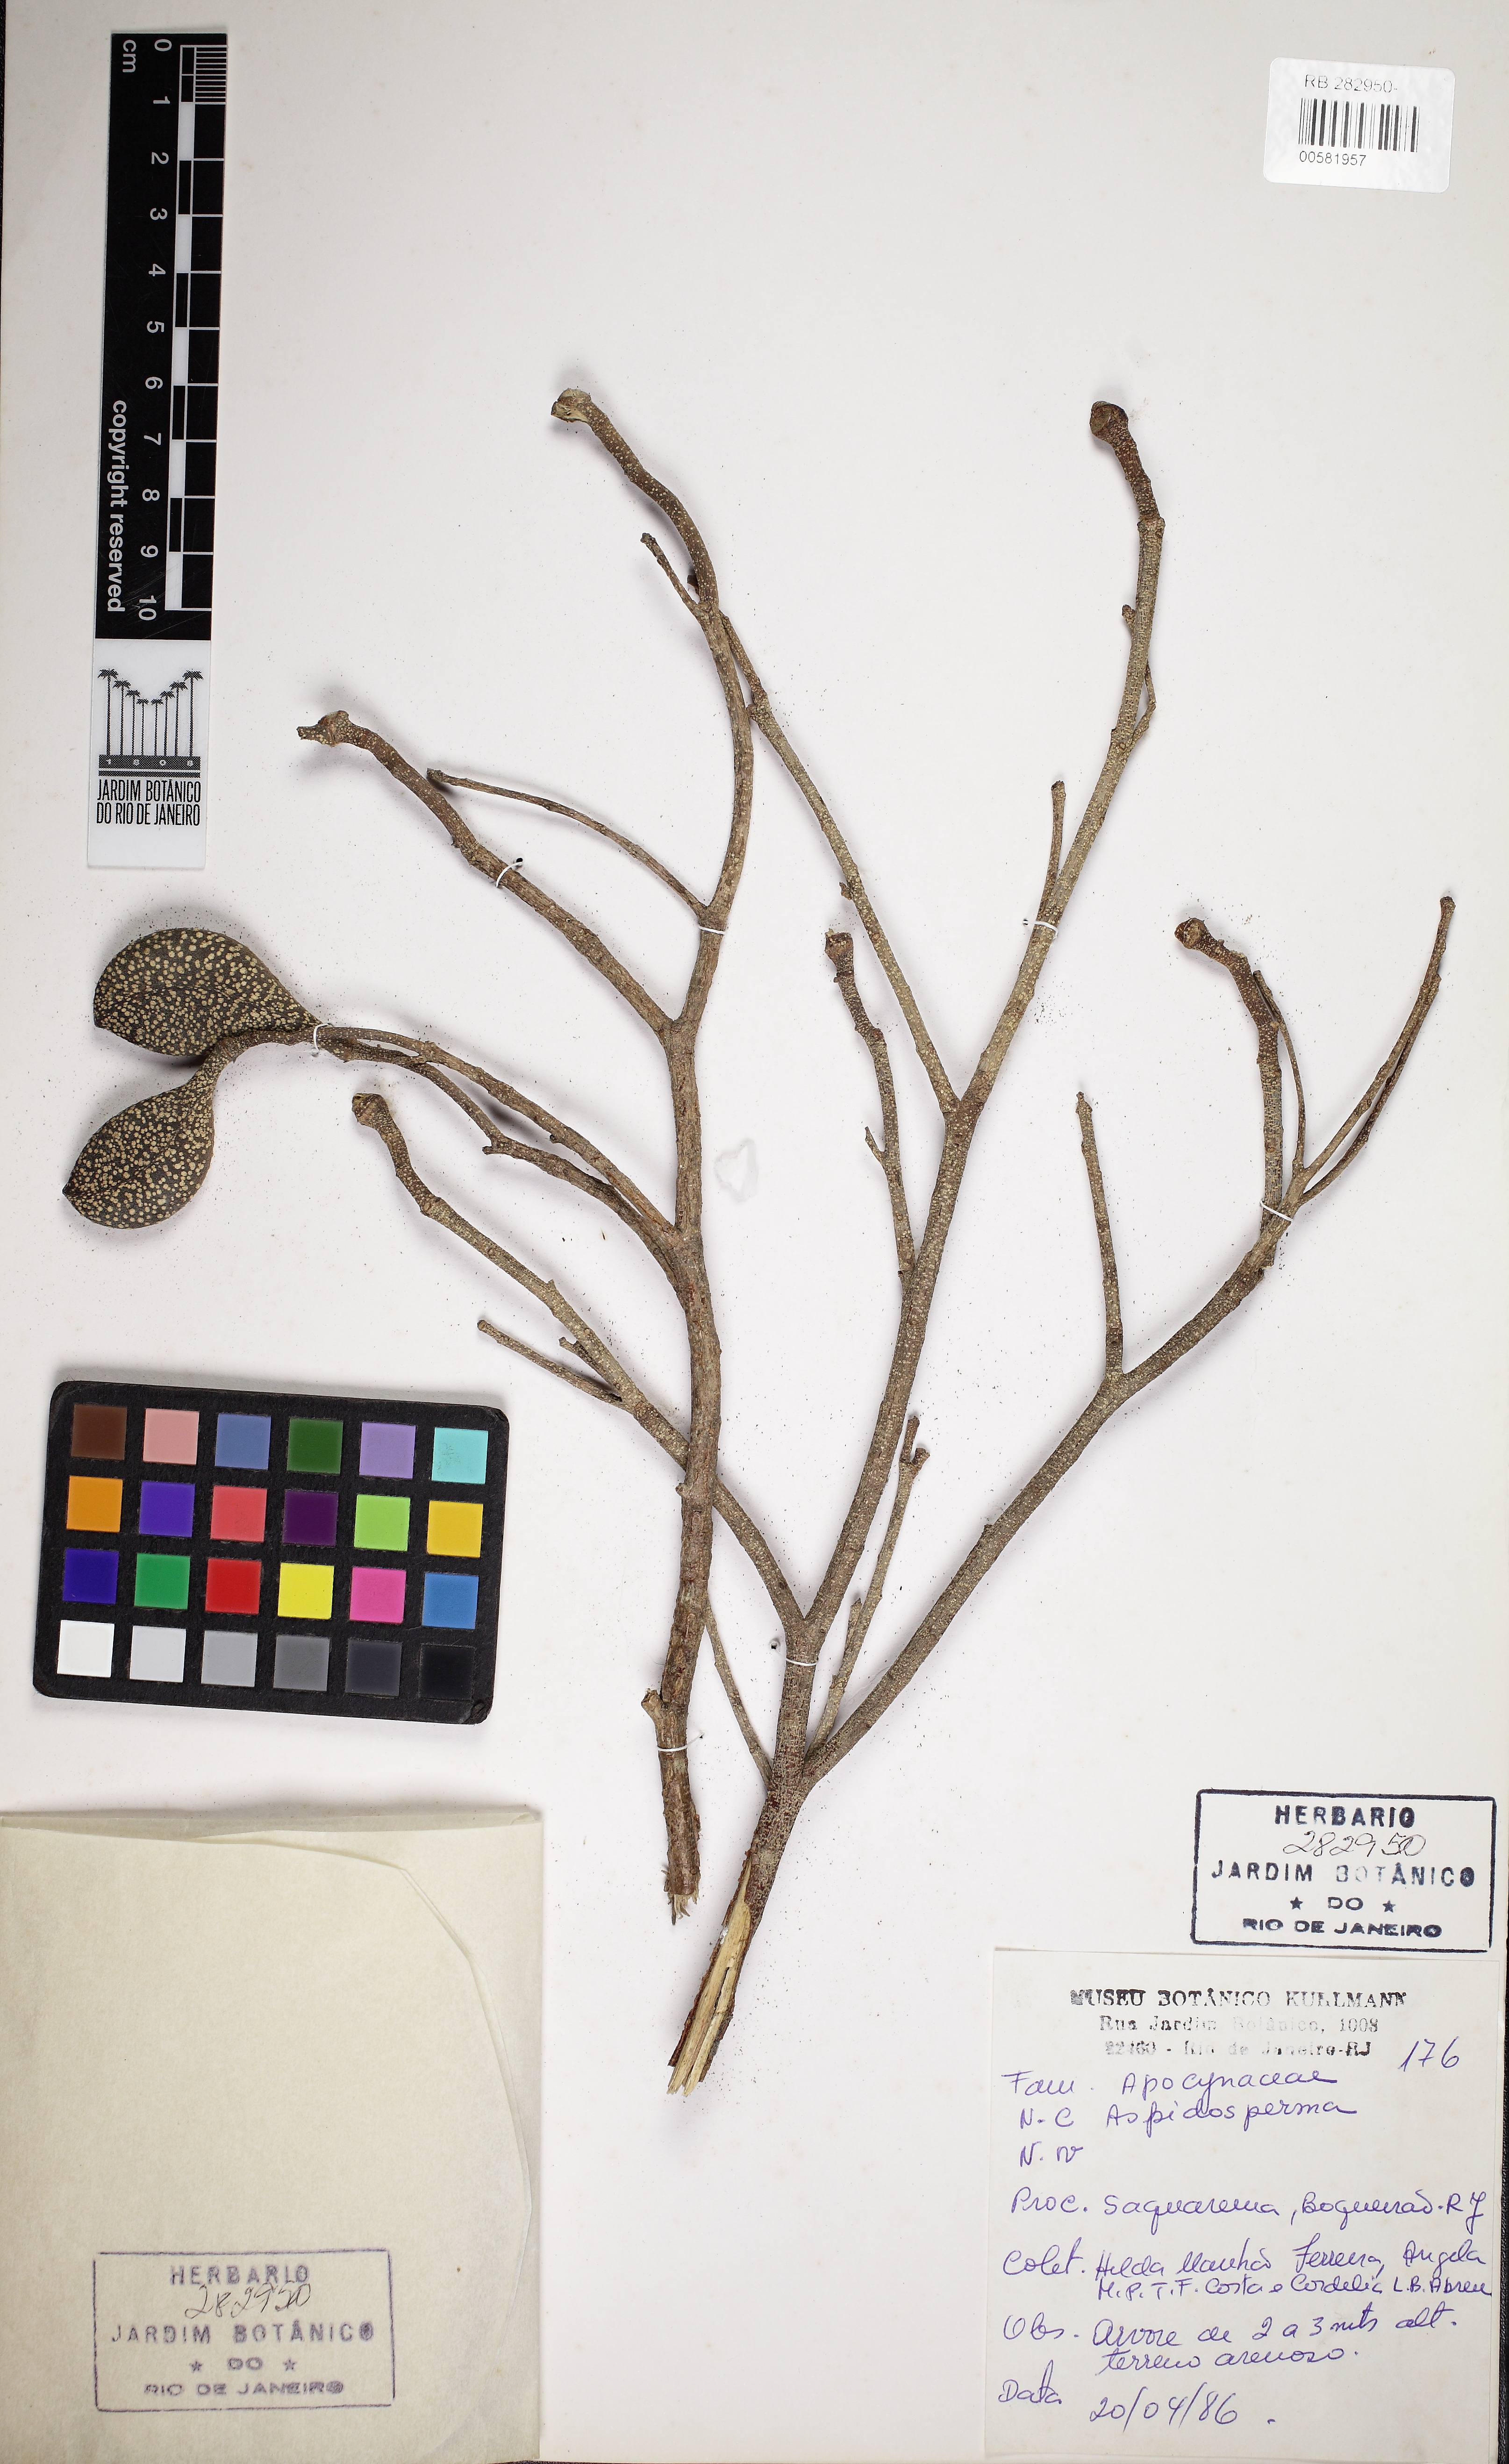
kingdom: Plantae
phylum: Tracheophyta
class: Magnoliopsida
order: Gentianales
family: Apocynaceae
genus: Aspidosperma
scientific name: Aspidosperma pyricollum
